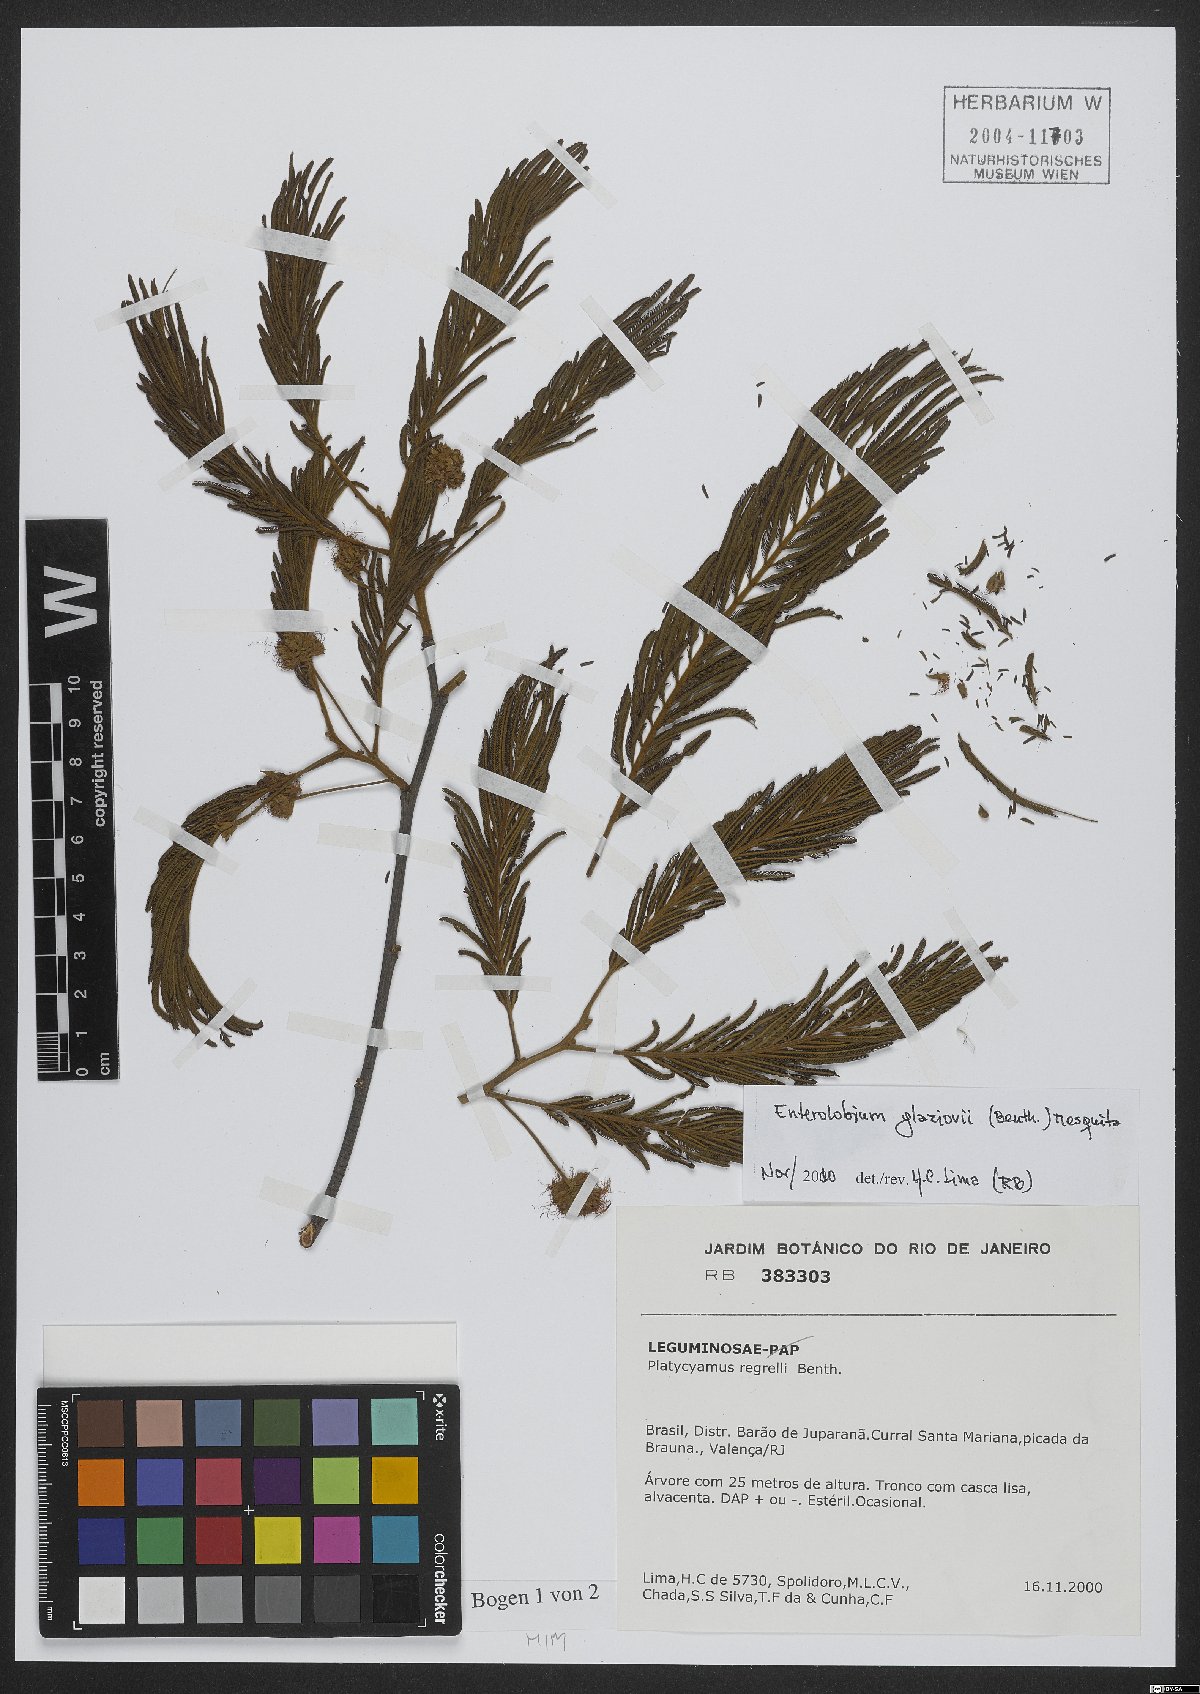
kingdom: Plantae
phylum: Tracheophyta
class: Magnoliopsida
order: Fabales
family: Fabaceae
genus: Enterolobium
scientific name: Enterolobium glaziovii
